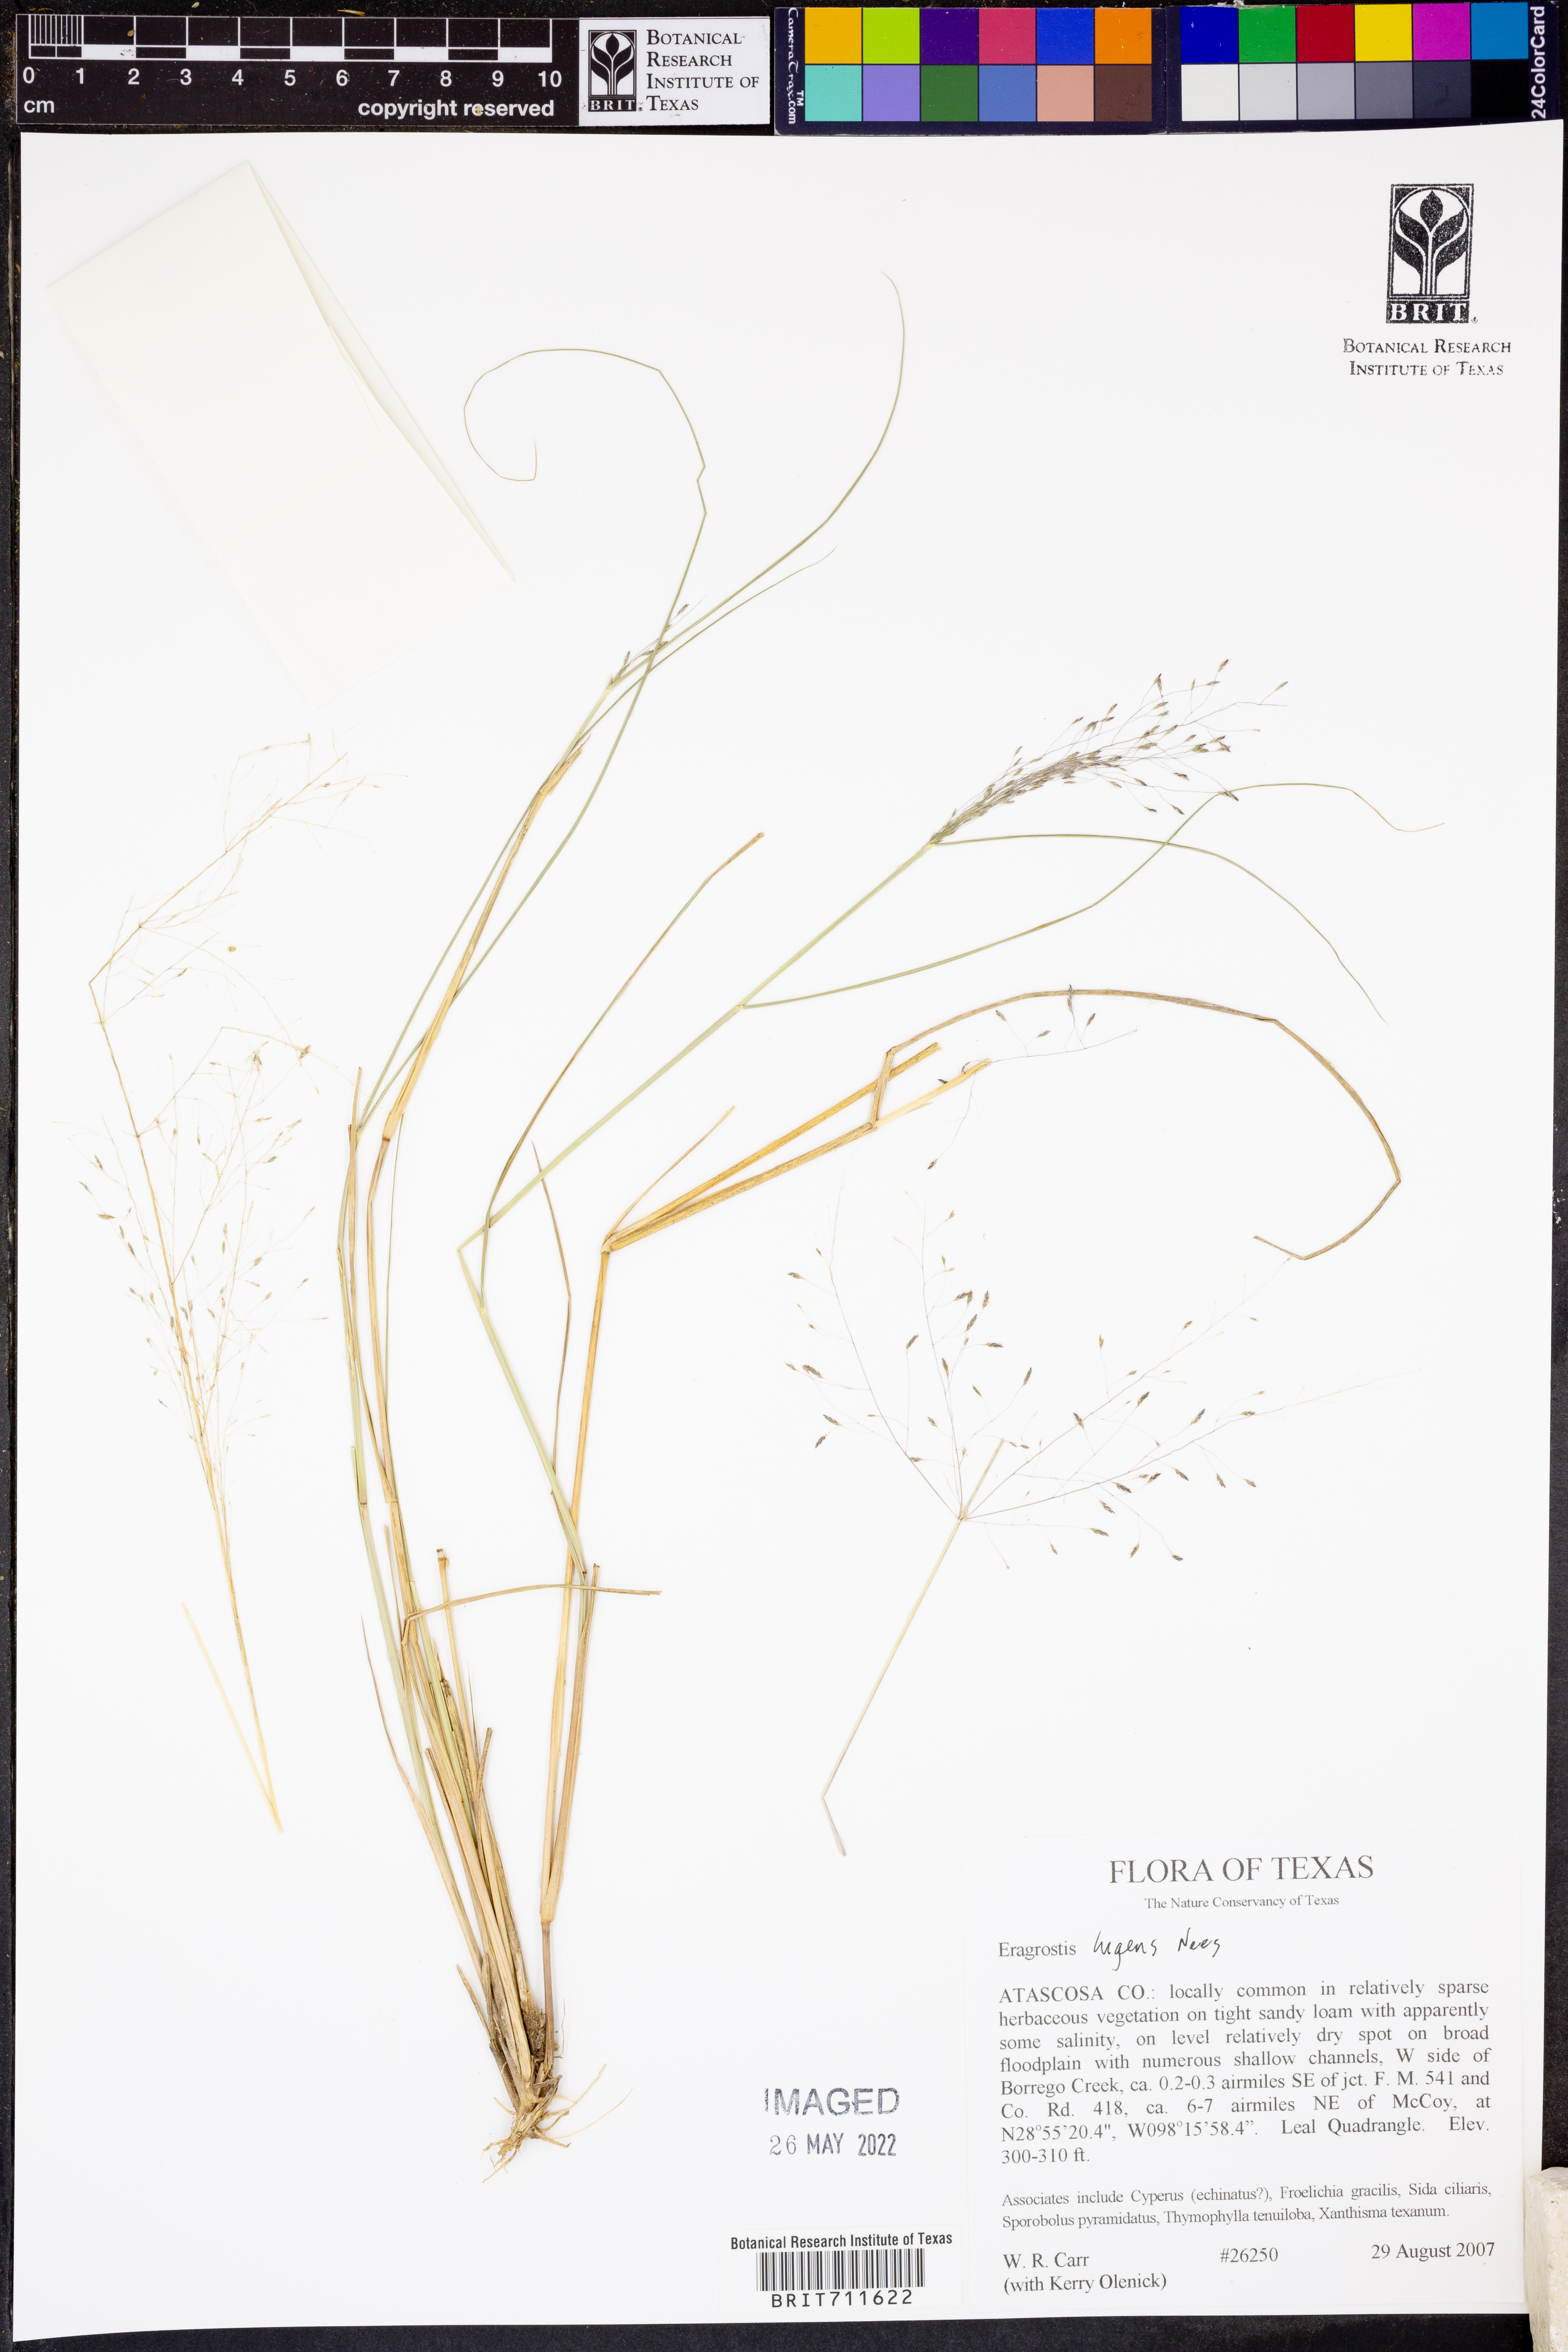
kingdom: Plantae
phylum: Tracheophyta
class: Liliopsida
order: Poales
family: Poaceae
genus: Eragrostis
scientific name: Eragrostis
